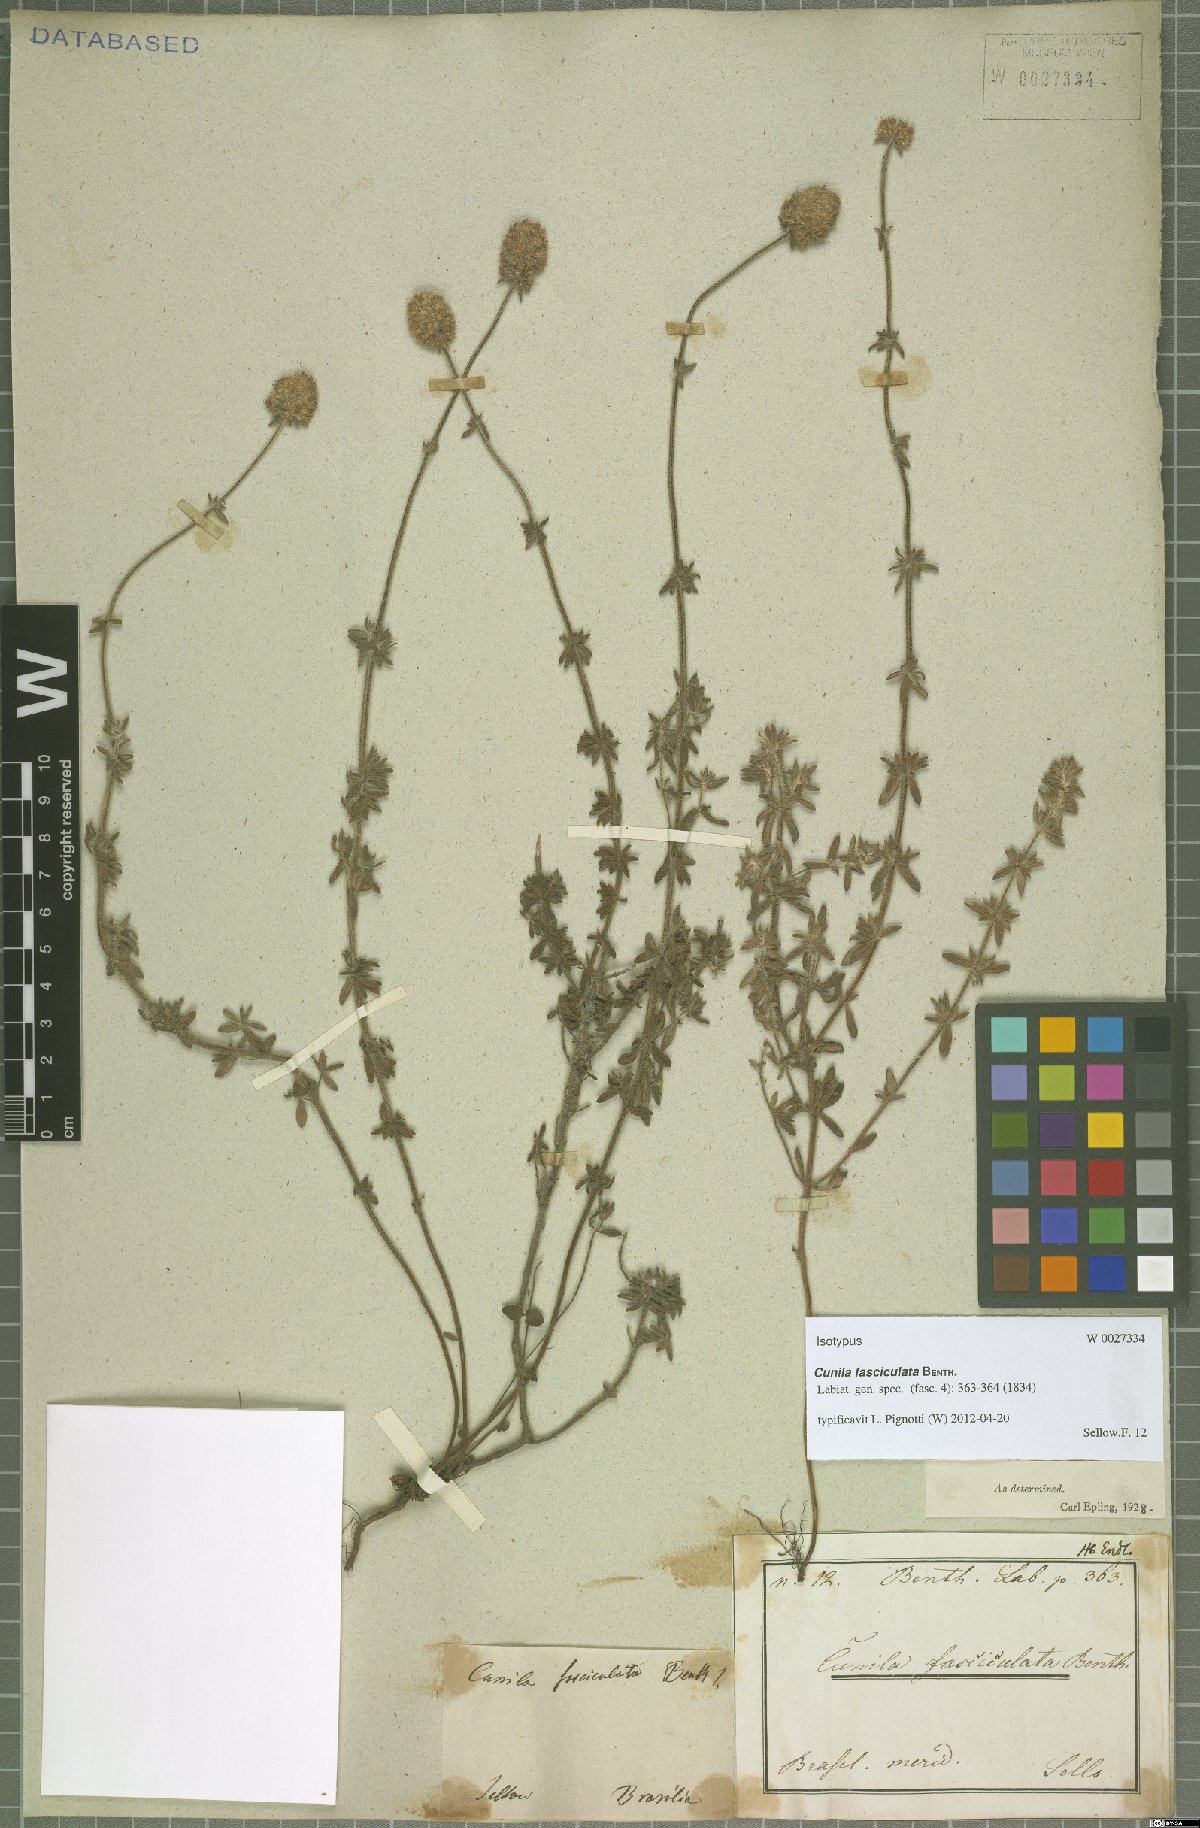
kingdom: Plantae
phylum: Tracheophyta
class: Magnoliopsida
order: Lamiales
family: Lamiaceae
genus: Cunila
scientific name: Cunila fasciculata
